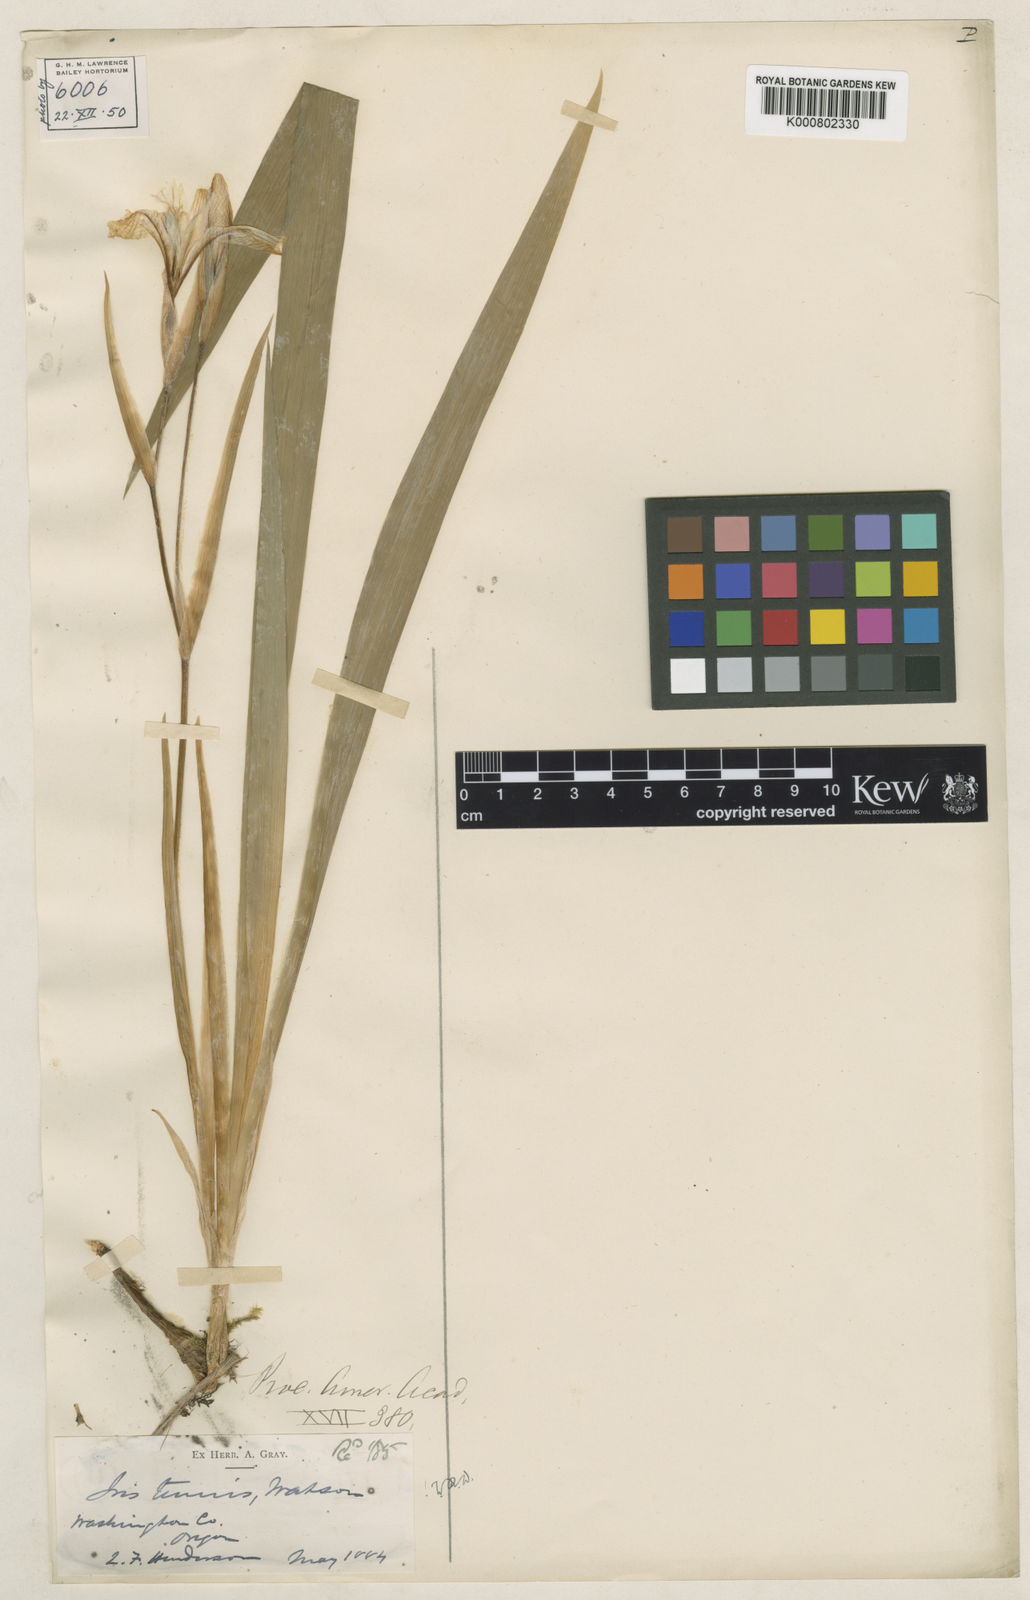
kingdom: Plantae
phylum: Tracheophyta
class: Liliopsida
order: Asparagales
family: Iridaceae
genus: Iris
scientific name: Iris tenuis
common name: Clackamas iris
